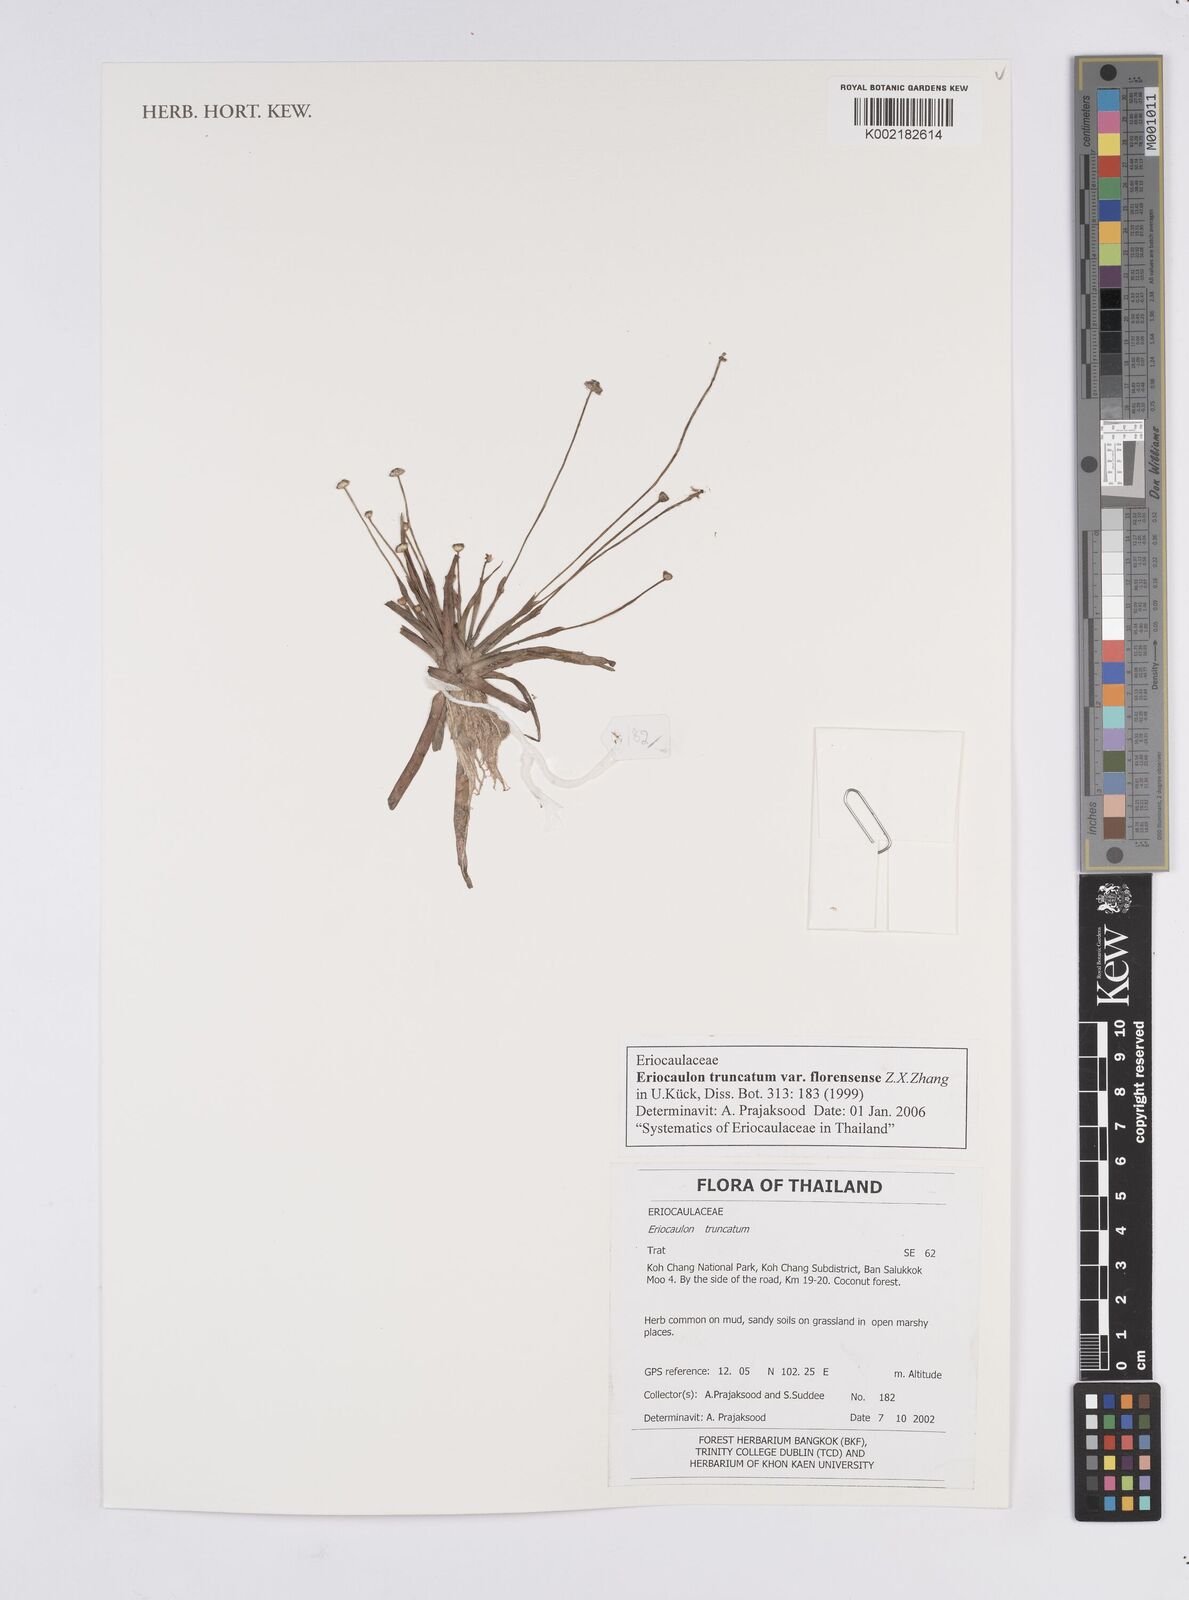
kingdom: Plantae
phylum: Tracheophyta
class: Liliopsida
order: Poales
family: Eriocaulaceae
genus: Eriocaulon
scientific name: Eriocaulon truncatum
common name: Short pipe-wort
